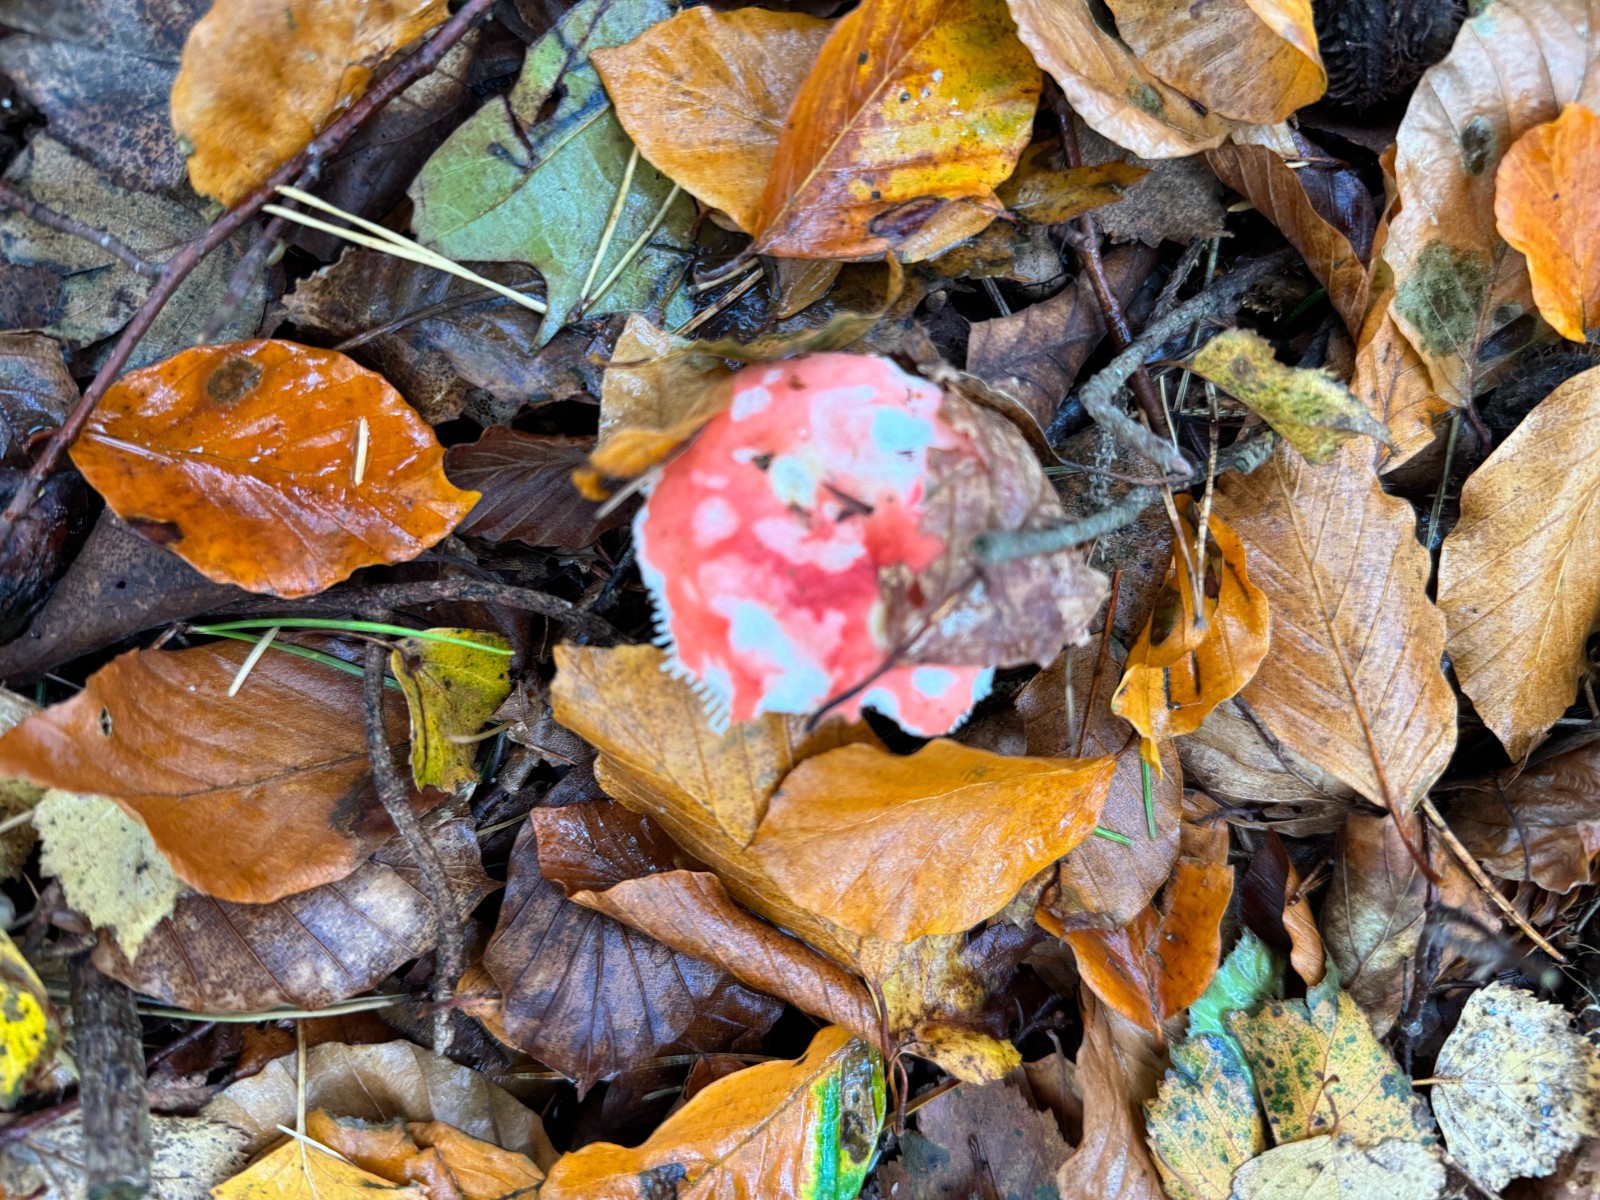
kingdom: Fungi
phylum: Basidiomycota
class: Agaricomycetes
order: Russulales
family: Russulaceae
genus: Russula
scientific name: Russula
